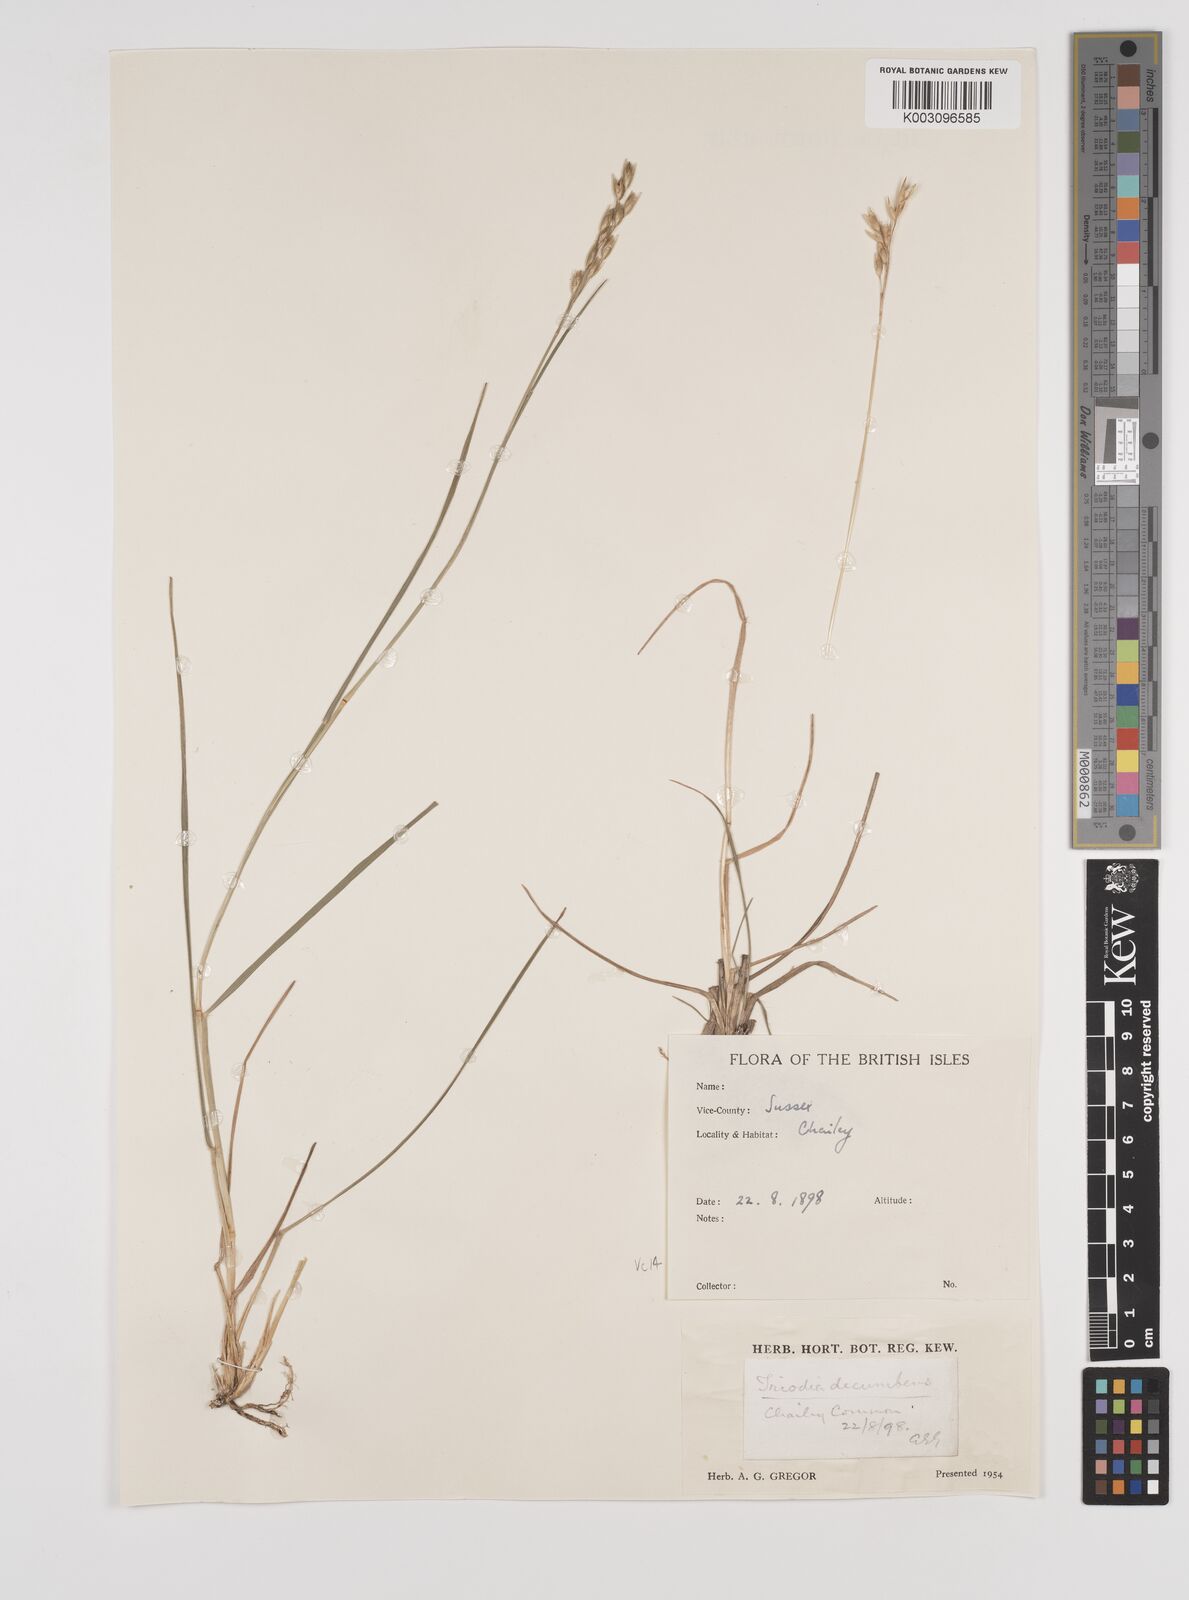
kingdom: Plantae
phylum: Tracheophyta
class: Liliopsida
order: Poales
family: Poaceae
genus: Danthonia
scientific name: Danthonia decumbens
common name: Common heathgrass
